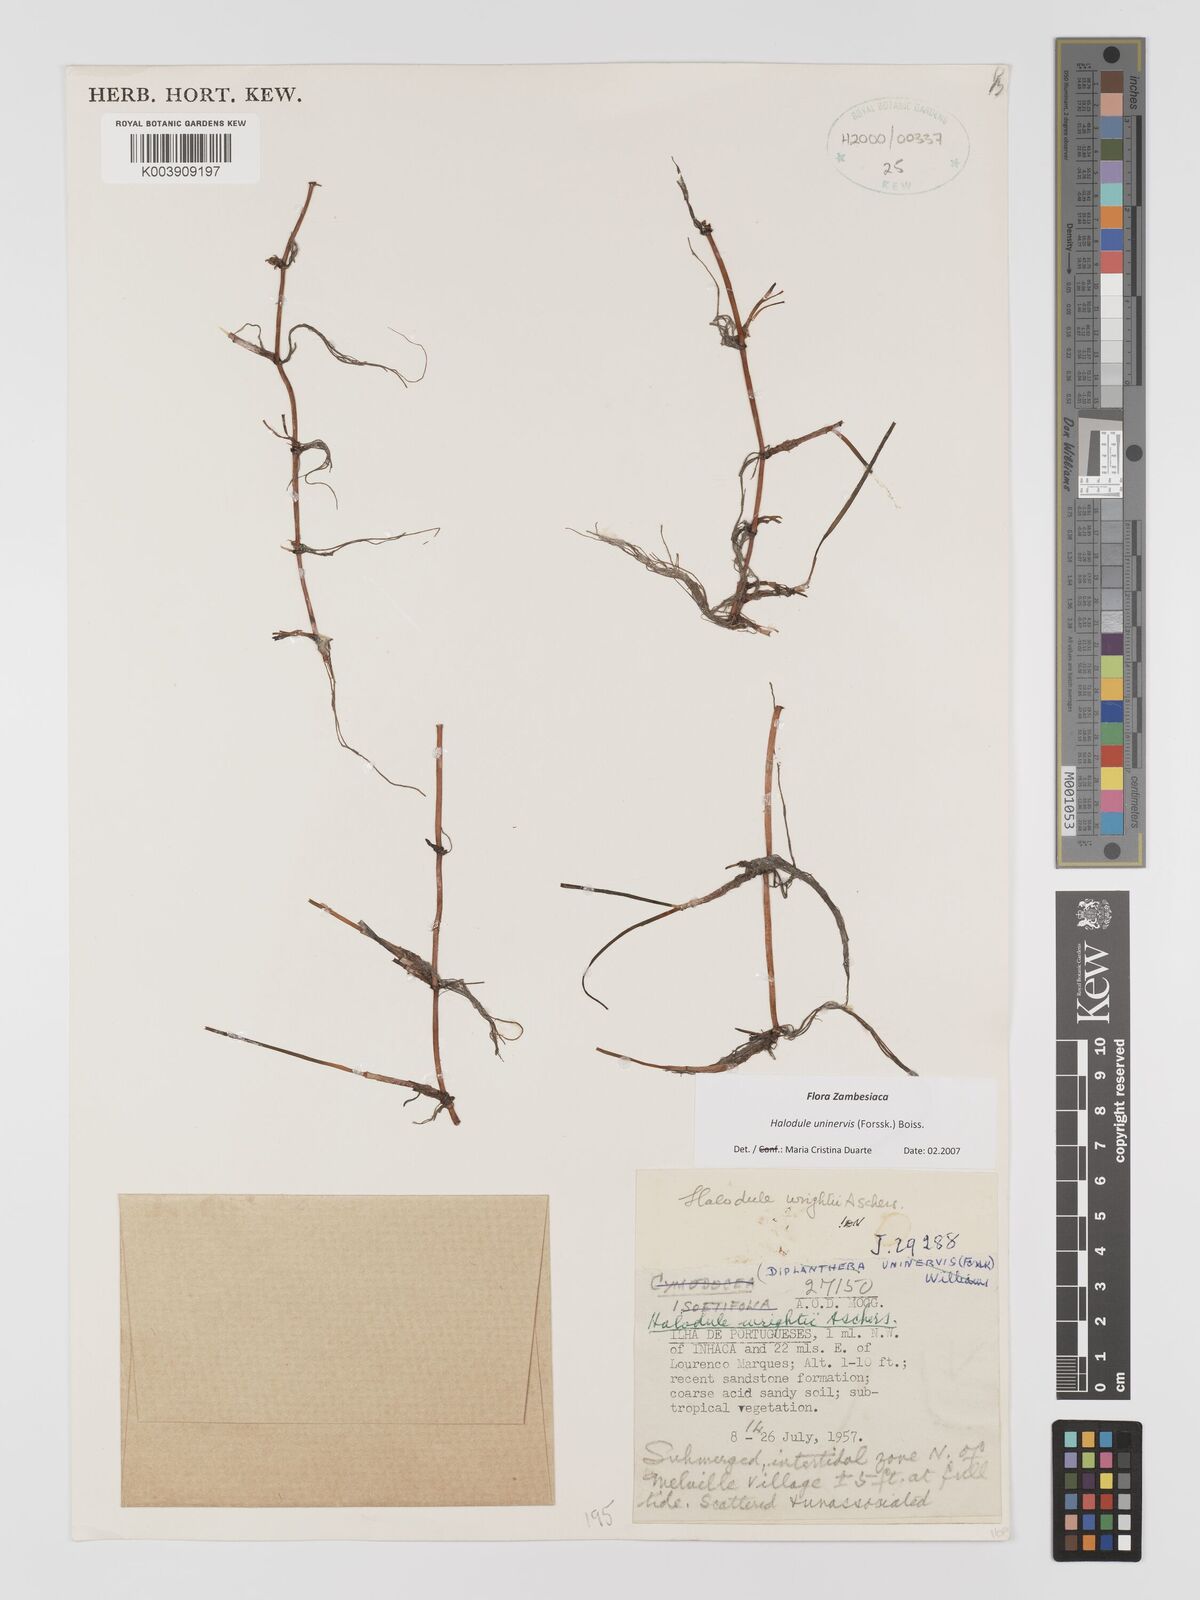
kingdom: Plantae
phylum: Tracheophyta
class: Liliopsida
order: Alismatales
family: Cymodoceaceae
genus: Halodule
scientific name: Halodule uninervis
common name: Narrowleaf seagrass
